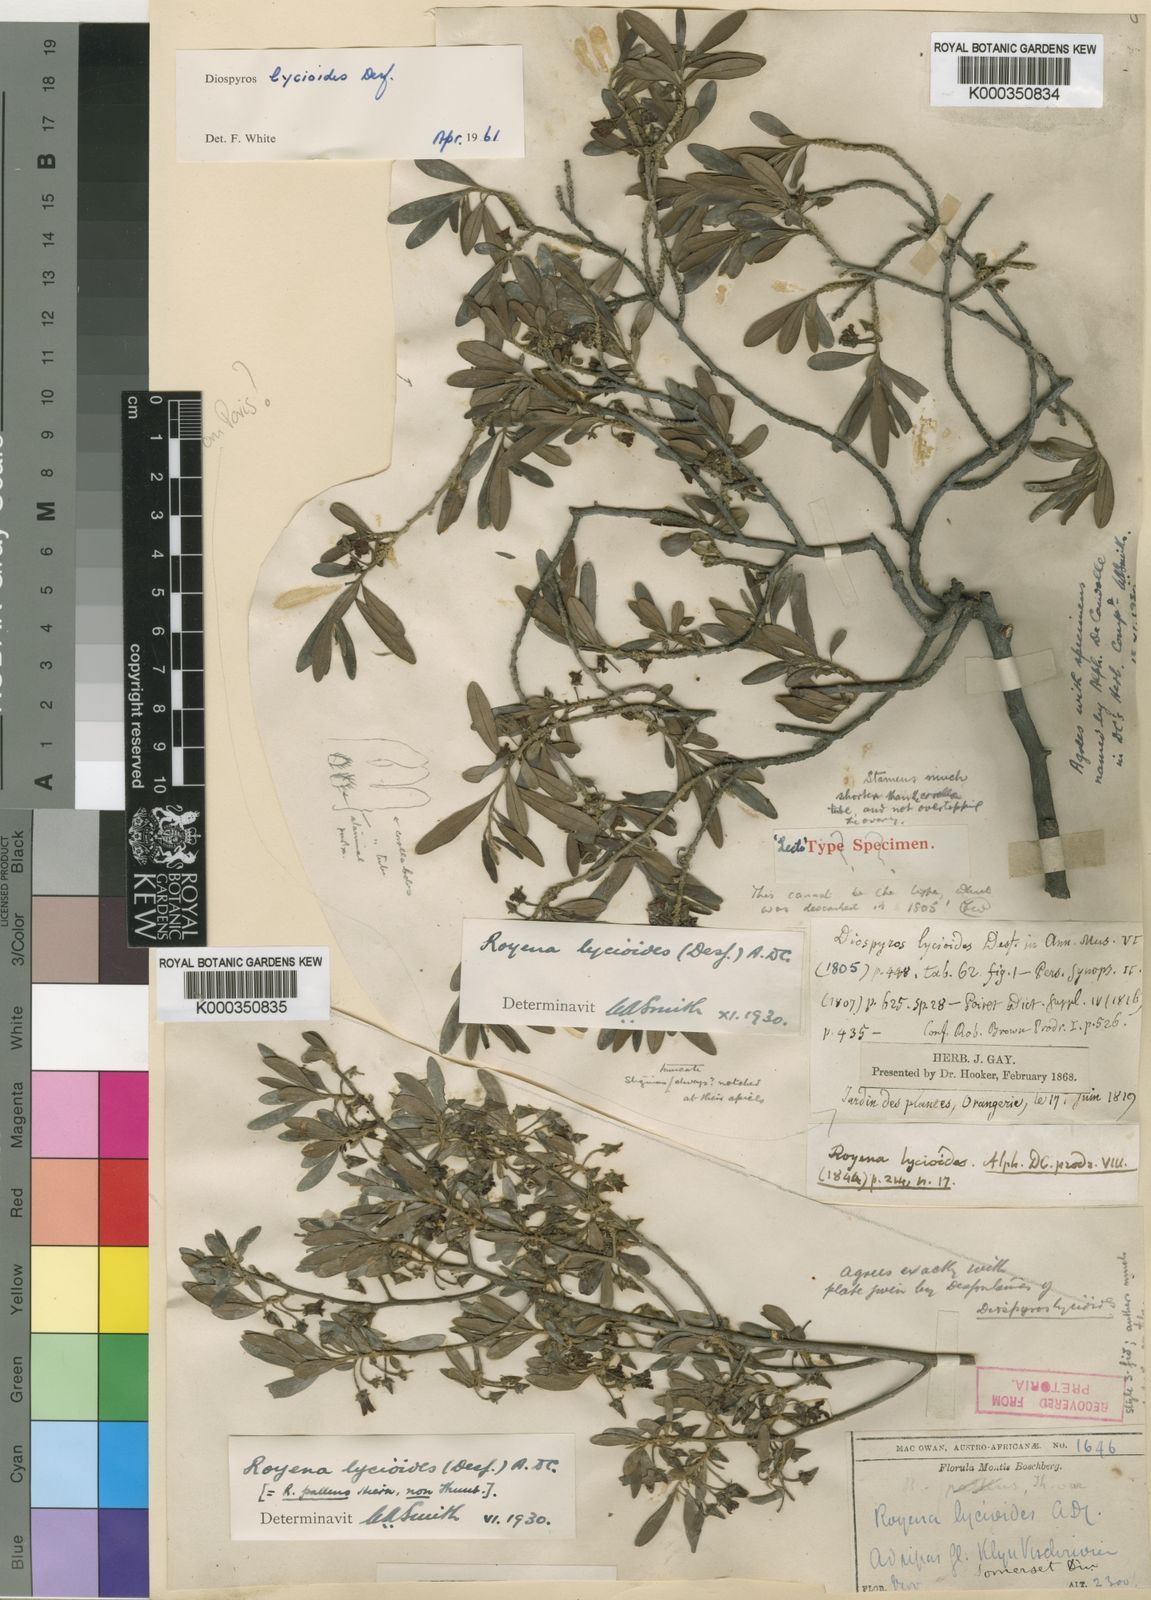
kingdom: Plantae
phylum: Tracheophyta
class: Magnoliopsida
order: Ericales
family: Ebenaceae
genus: Diospyros
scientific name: Diospyros lycioides
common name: Red star apple
